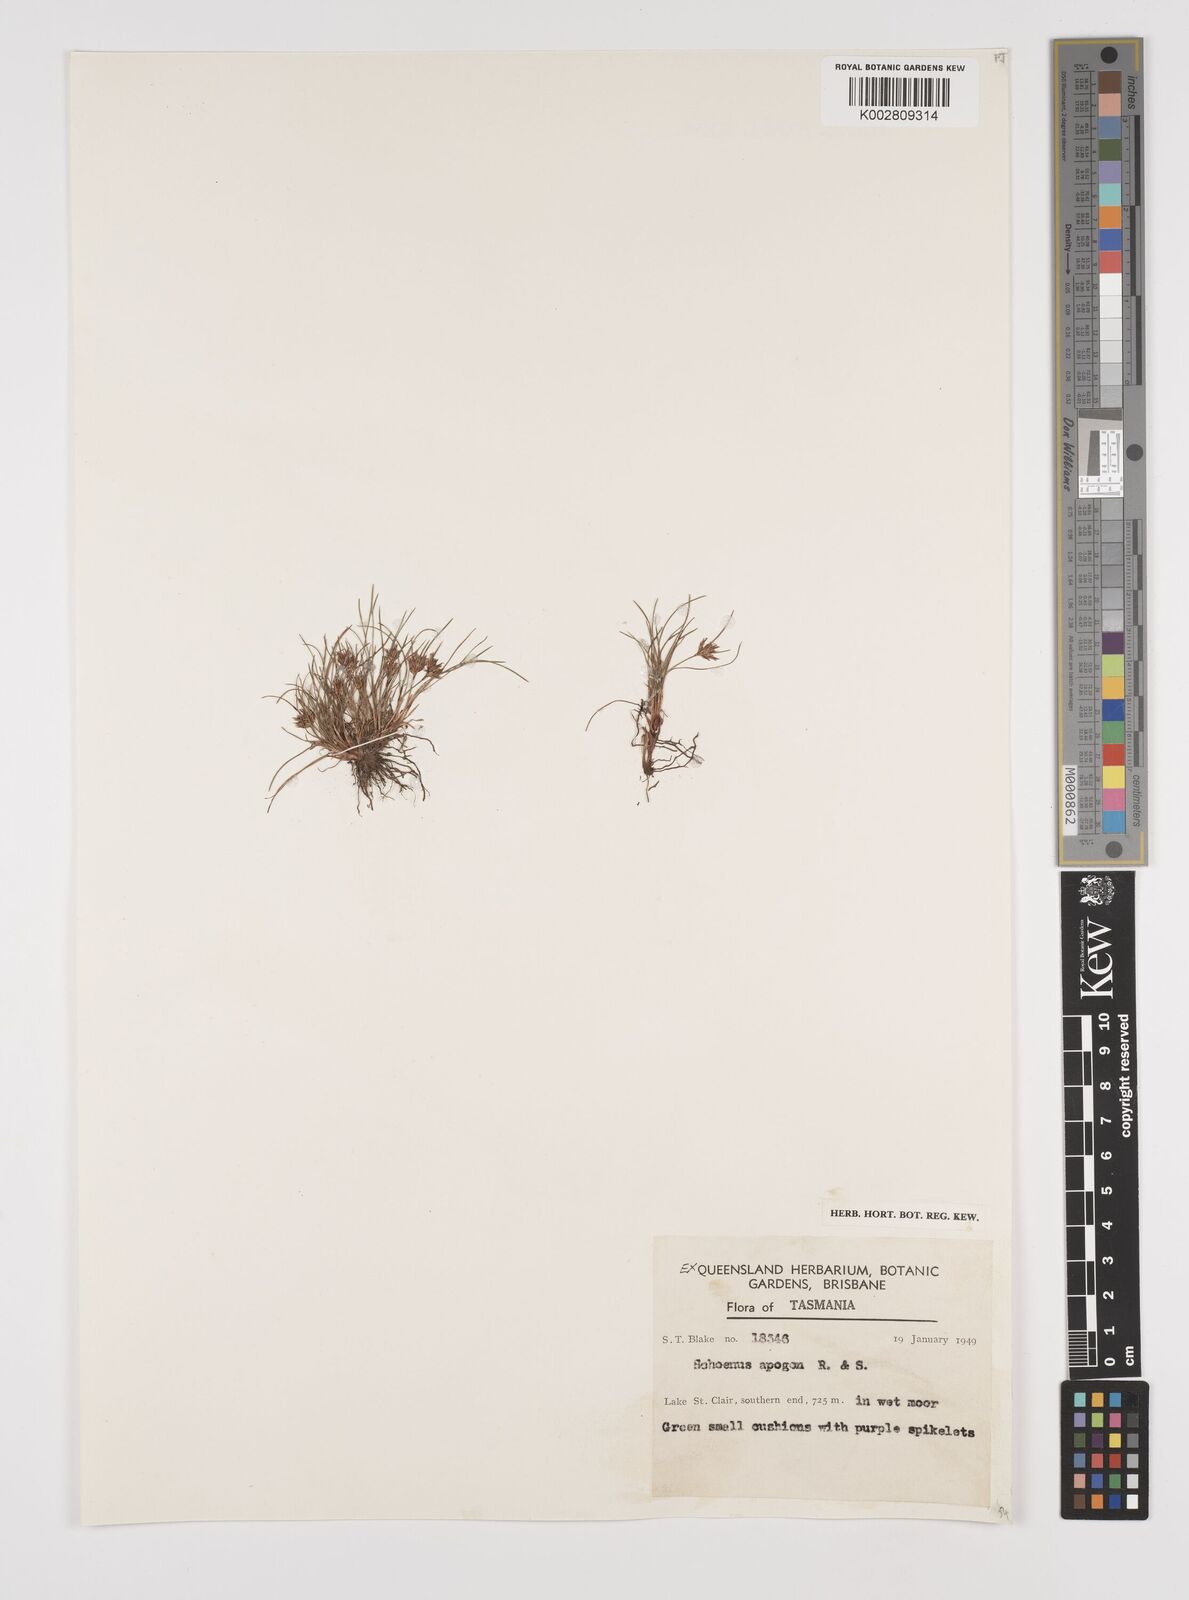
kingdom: Plantae
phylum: Tracheophyta
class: Liliopsida
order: Poales
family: Cyperaceae
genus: Schoenus
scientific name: Schoenus apogon
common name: Smooth bogrush
